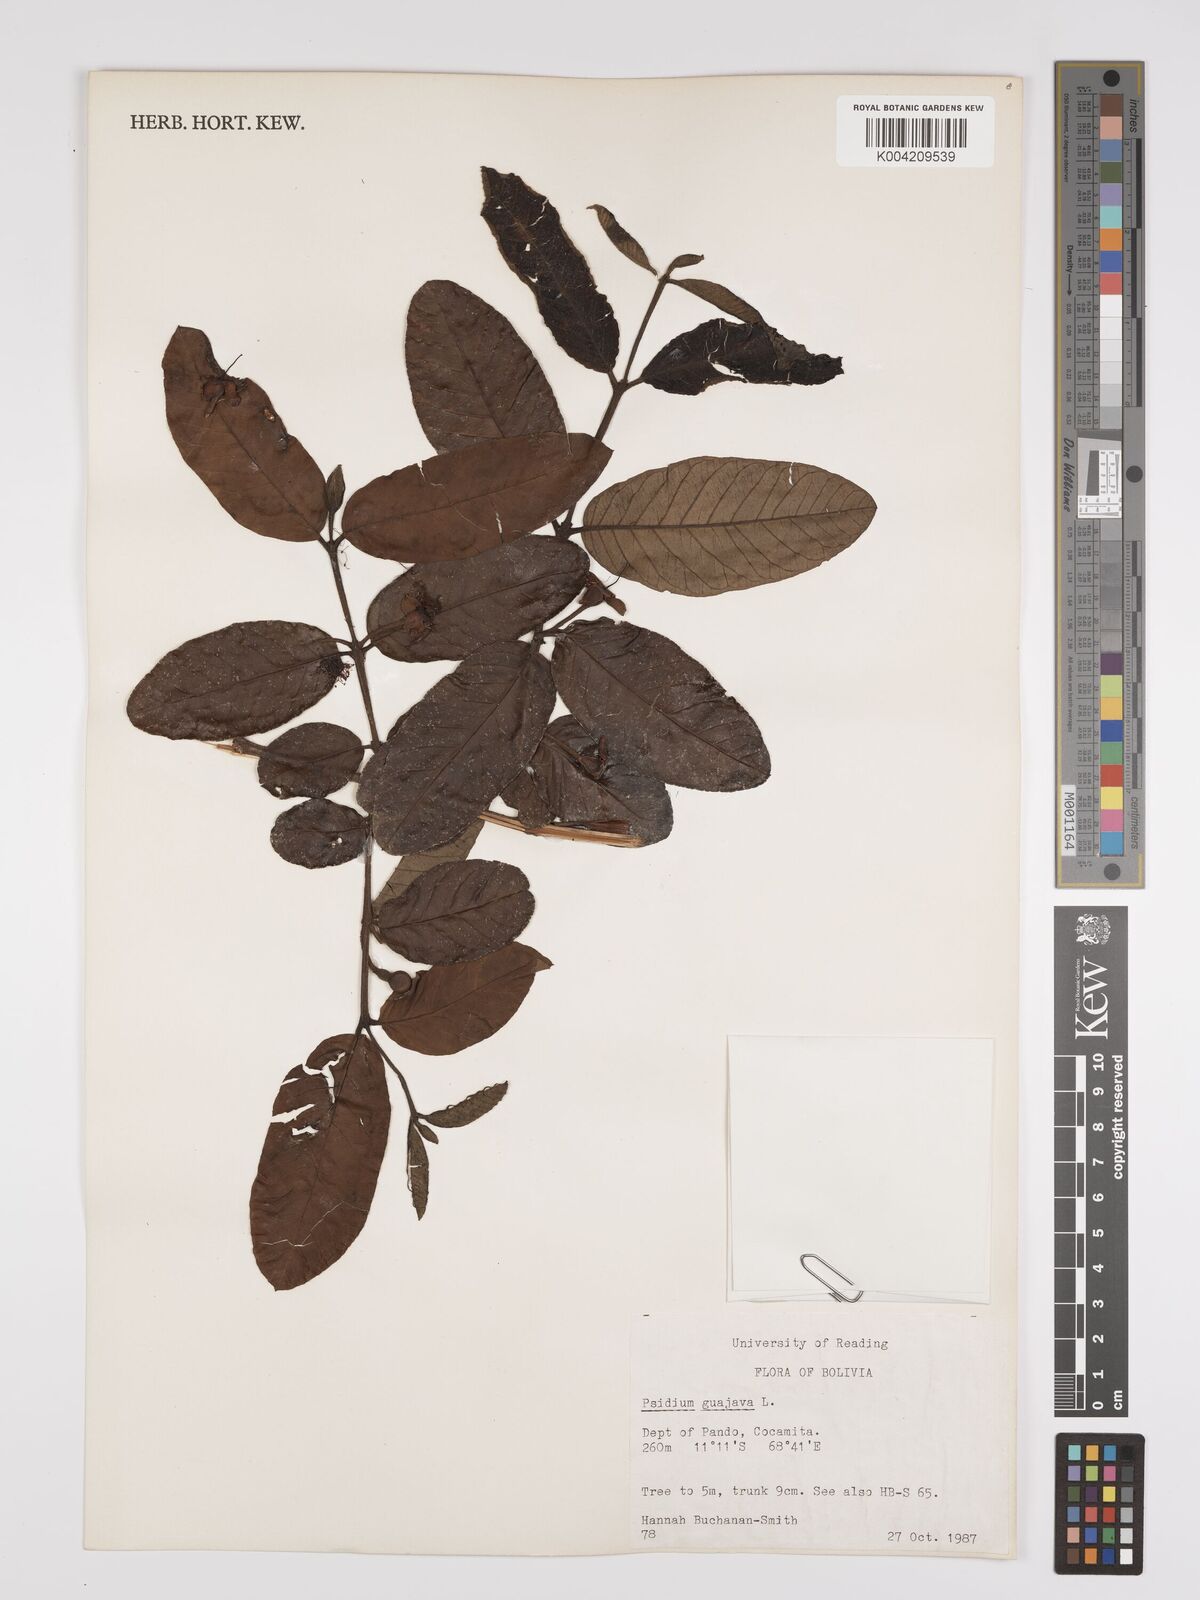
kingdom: Plantae
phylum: Tracheophyta
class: Magnoliopsida
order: Myrtales
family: Myrtaceae
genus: Psidium
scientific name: Psidium guajava
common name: Guava
